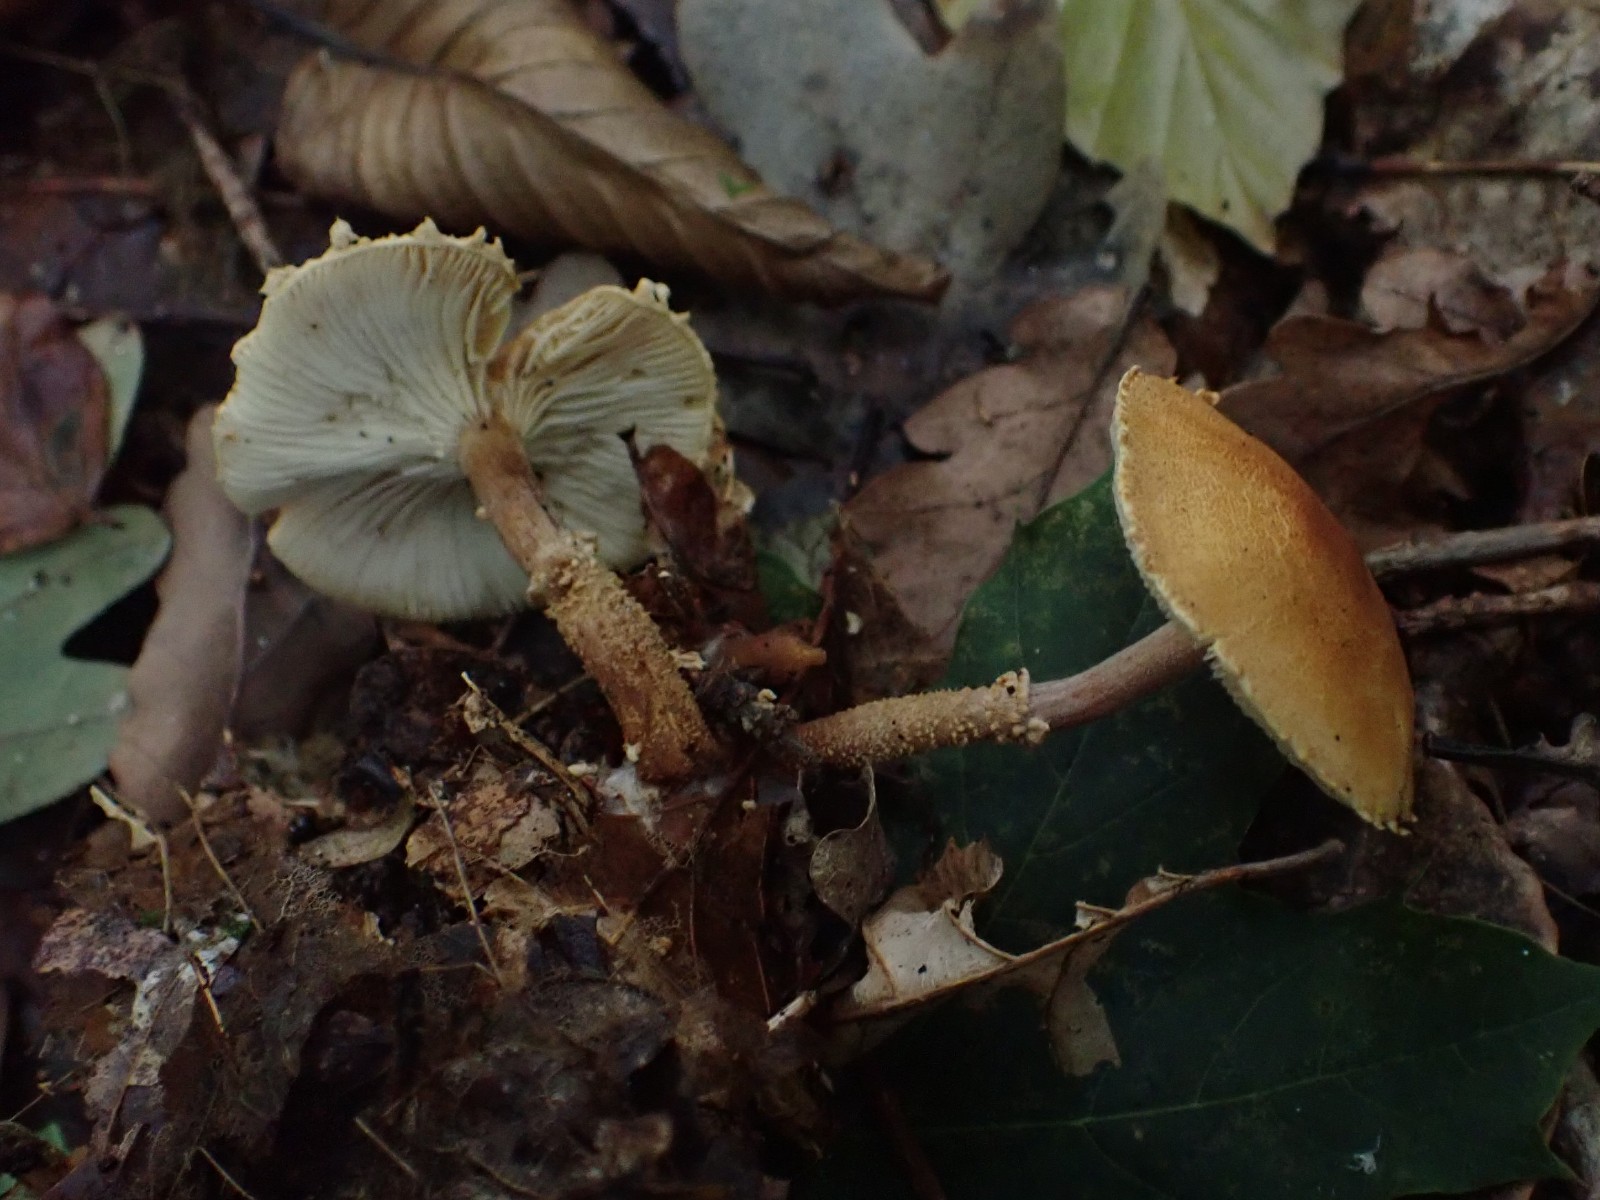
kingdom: Fungi
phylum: Basidiomycota
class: Agaricomycetes
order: Agaricales
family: Tricholomataceae
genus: Cystoderma
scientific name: Cystoderma amianthinum
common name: okkergul grynhat
